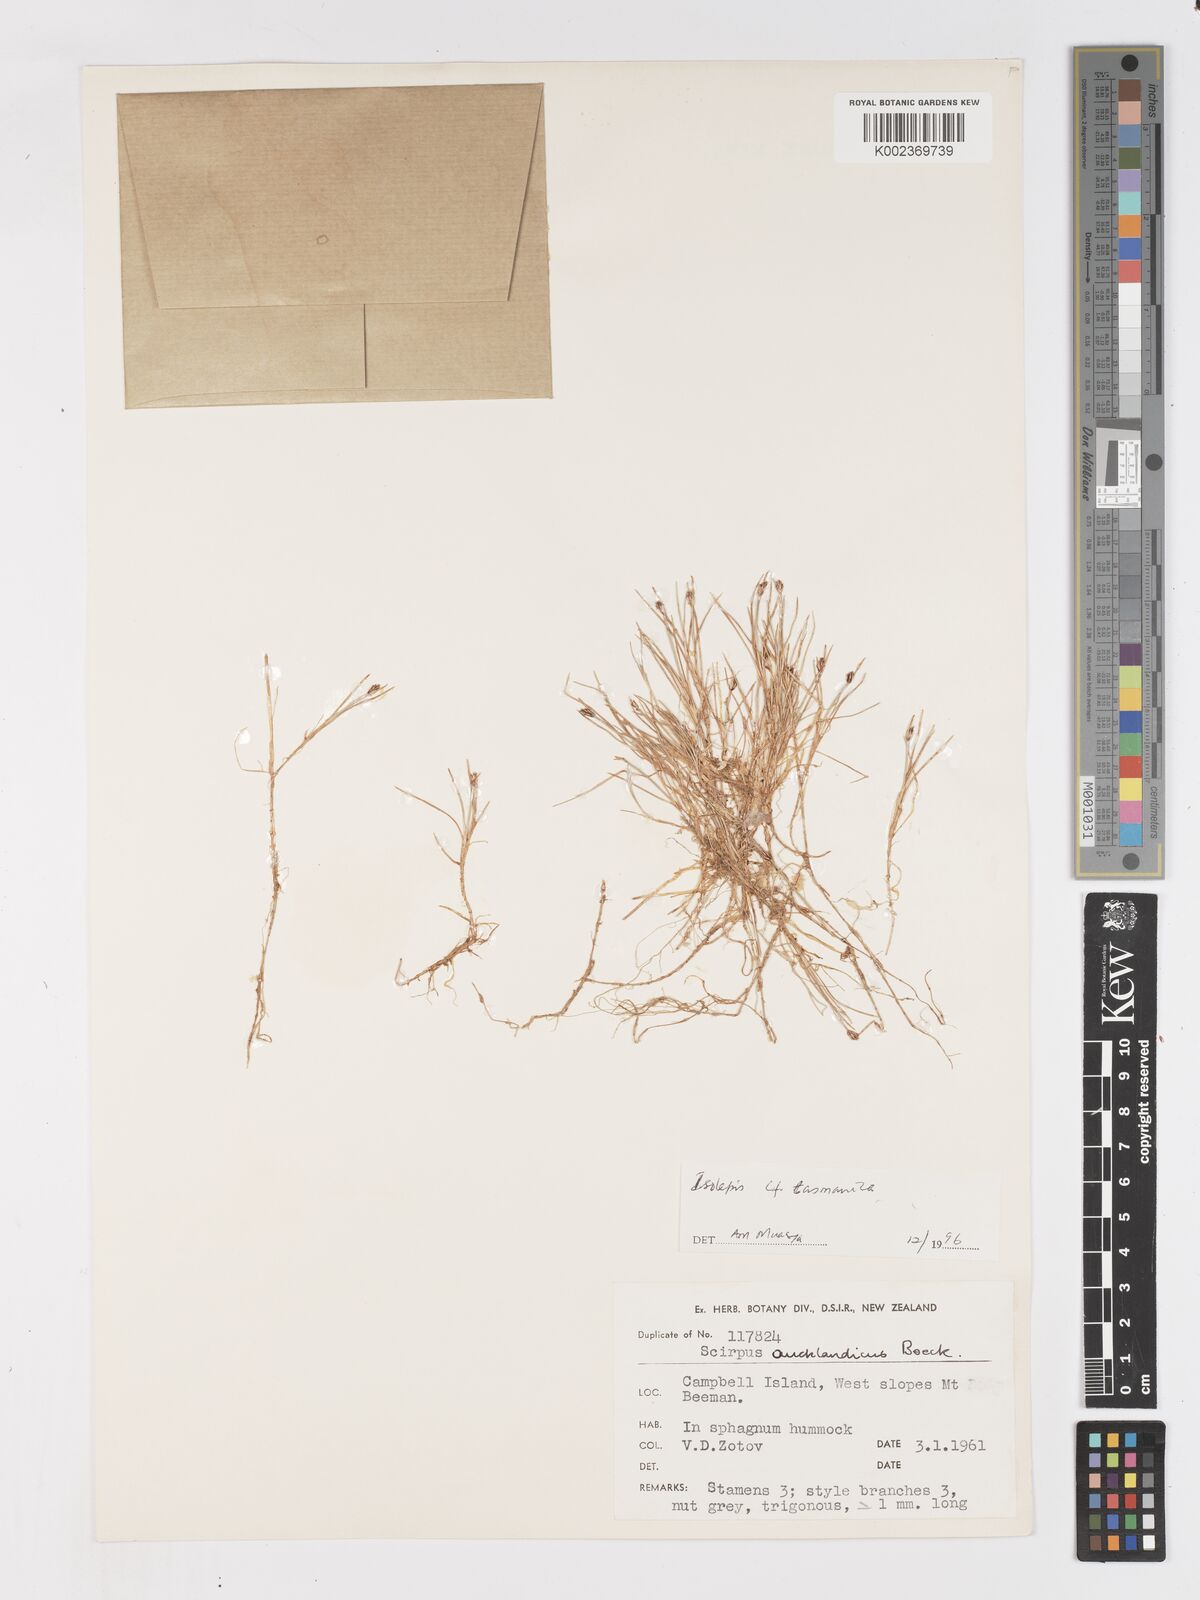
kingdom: Plantae
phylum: Tracheophyta
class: Liliopsida
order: Poales
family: Cyperaceae
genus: Isolepis
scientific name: Isolepis aucklandica
